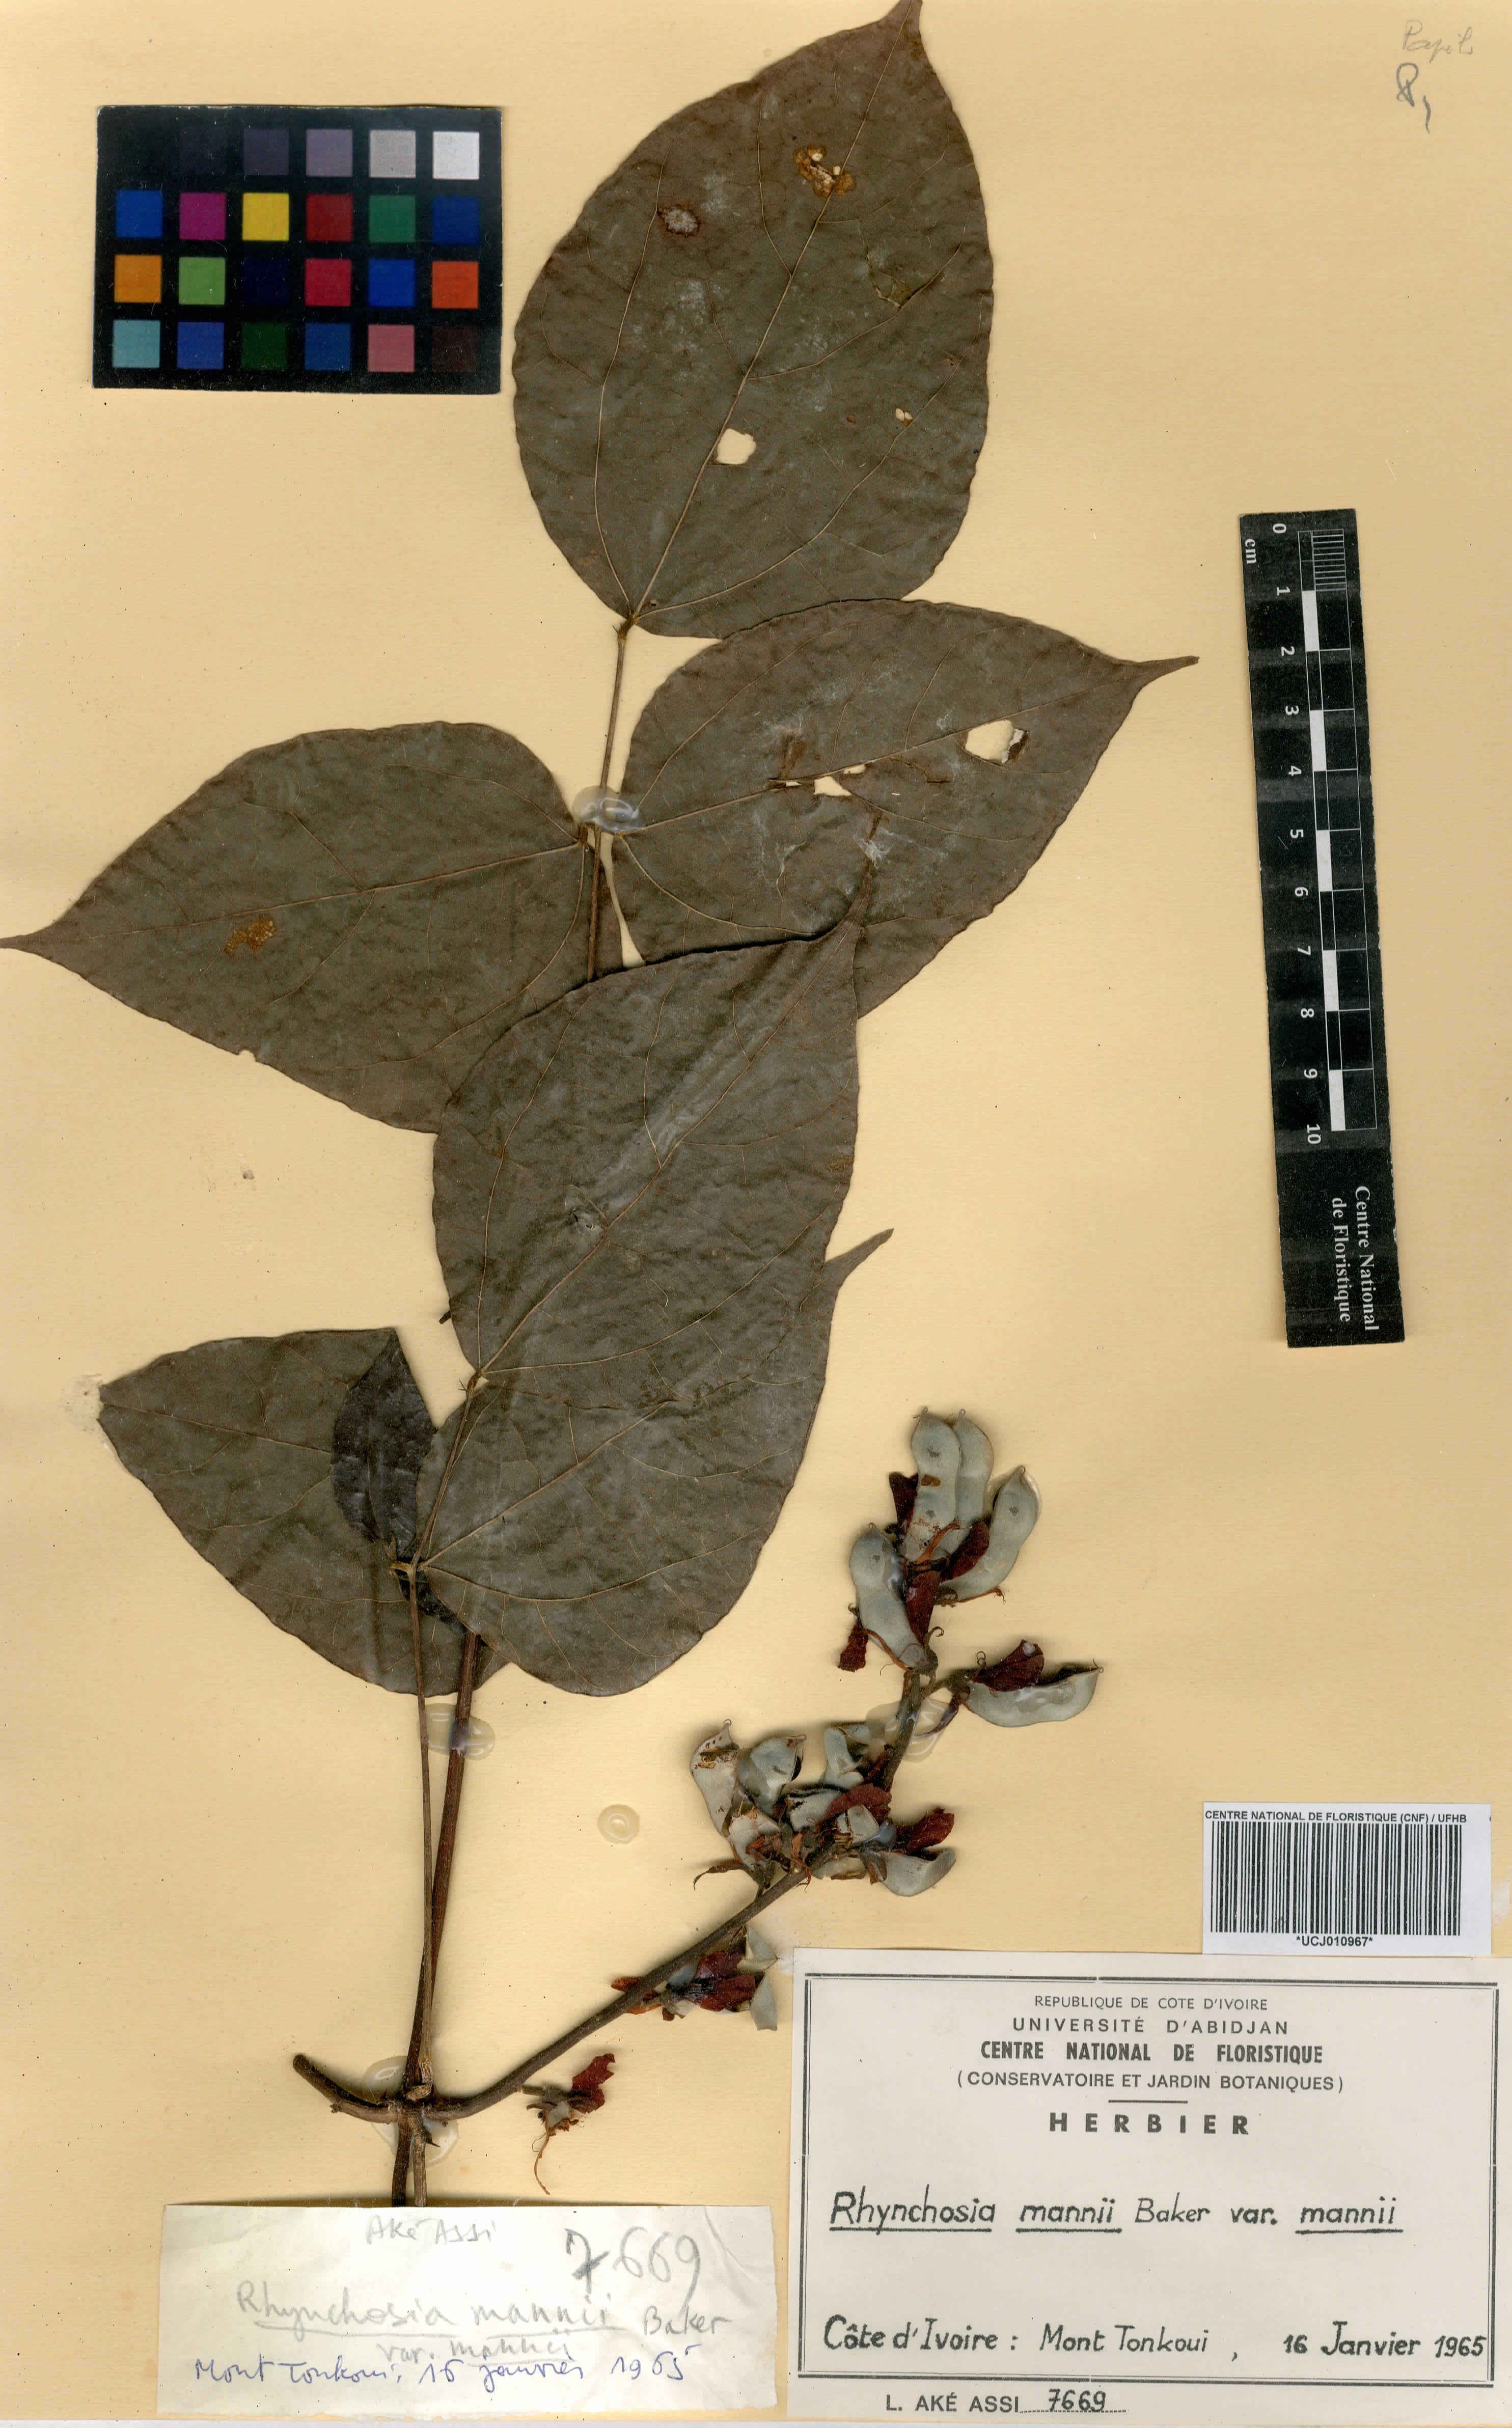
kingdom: Plantae
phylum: Tracheophyta
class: Magnoliopsida
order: Fabales
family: Fabaceae
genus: Rhynchosia
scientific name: Rhynchosia mannii
